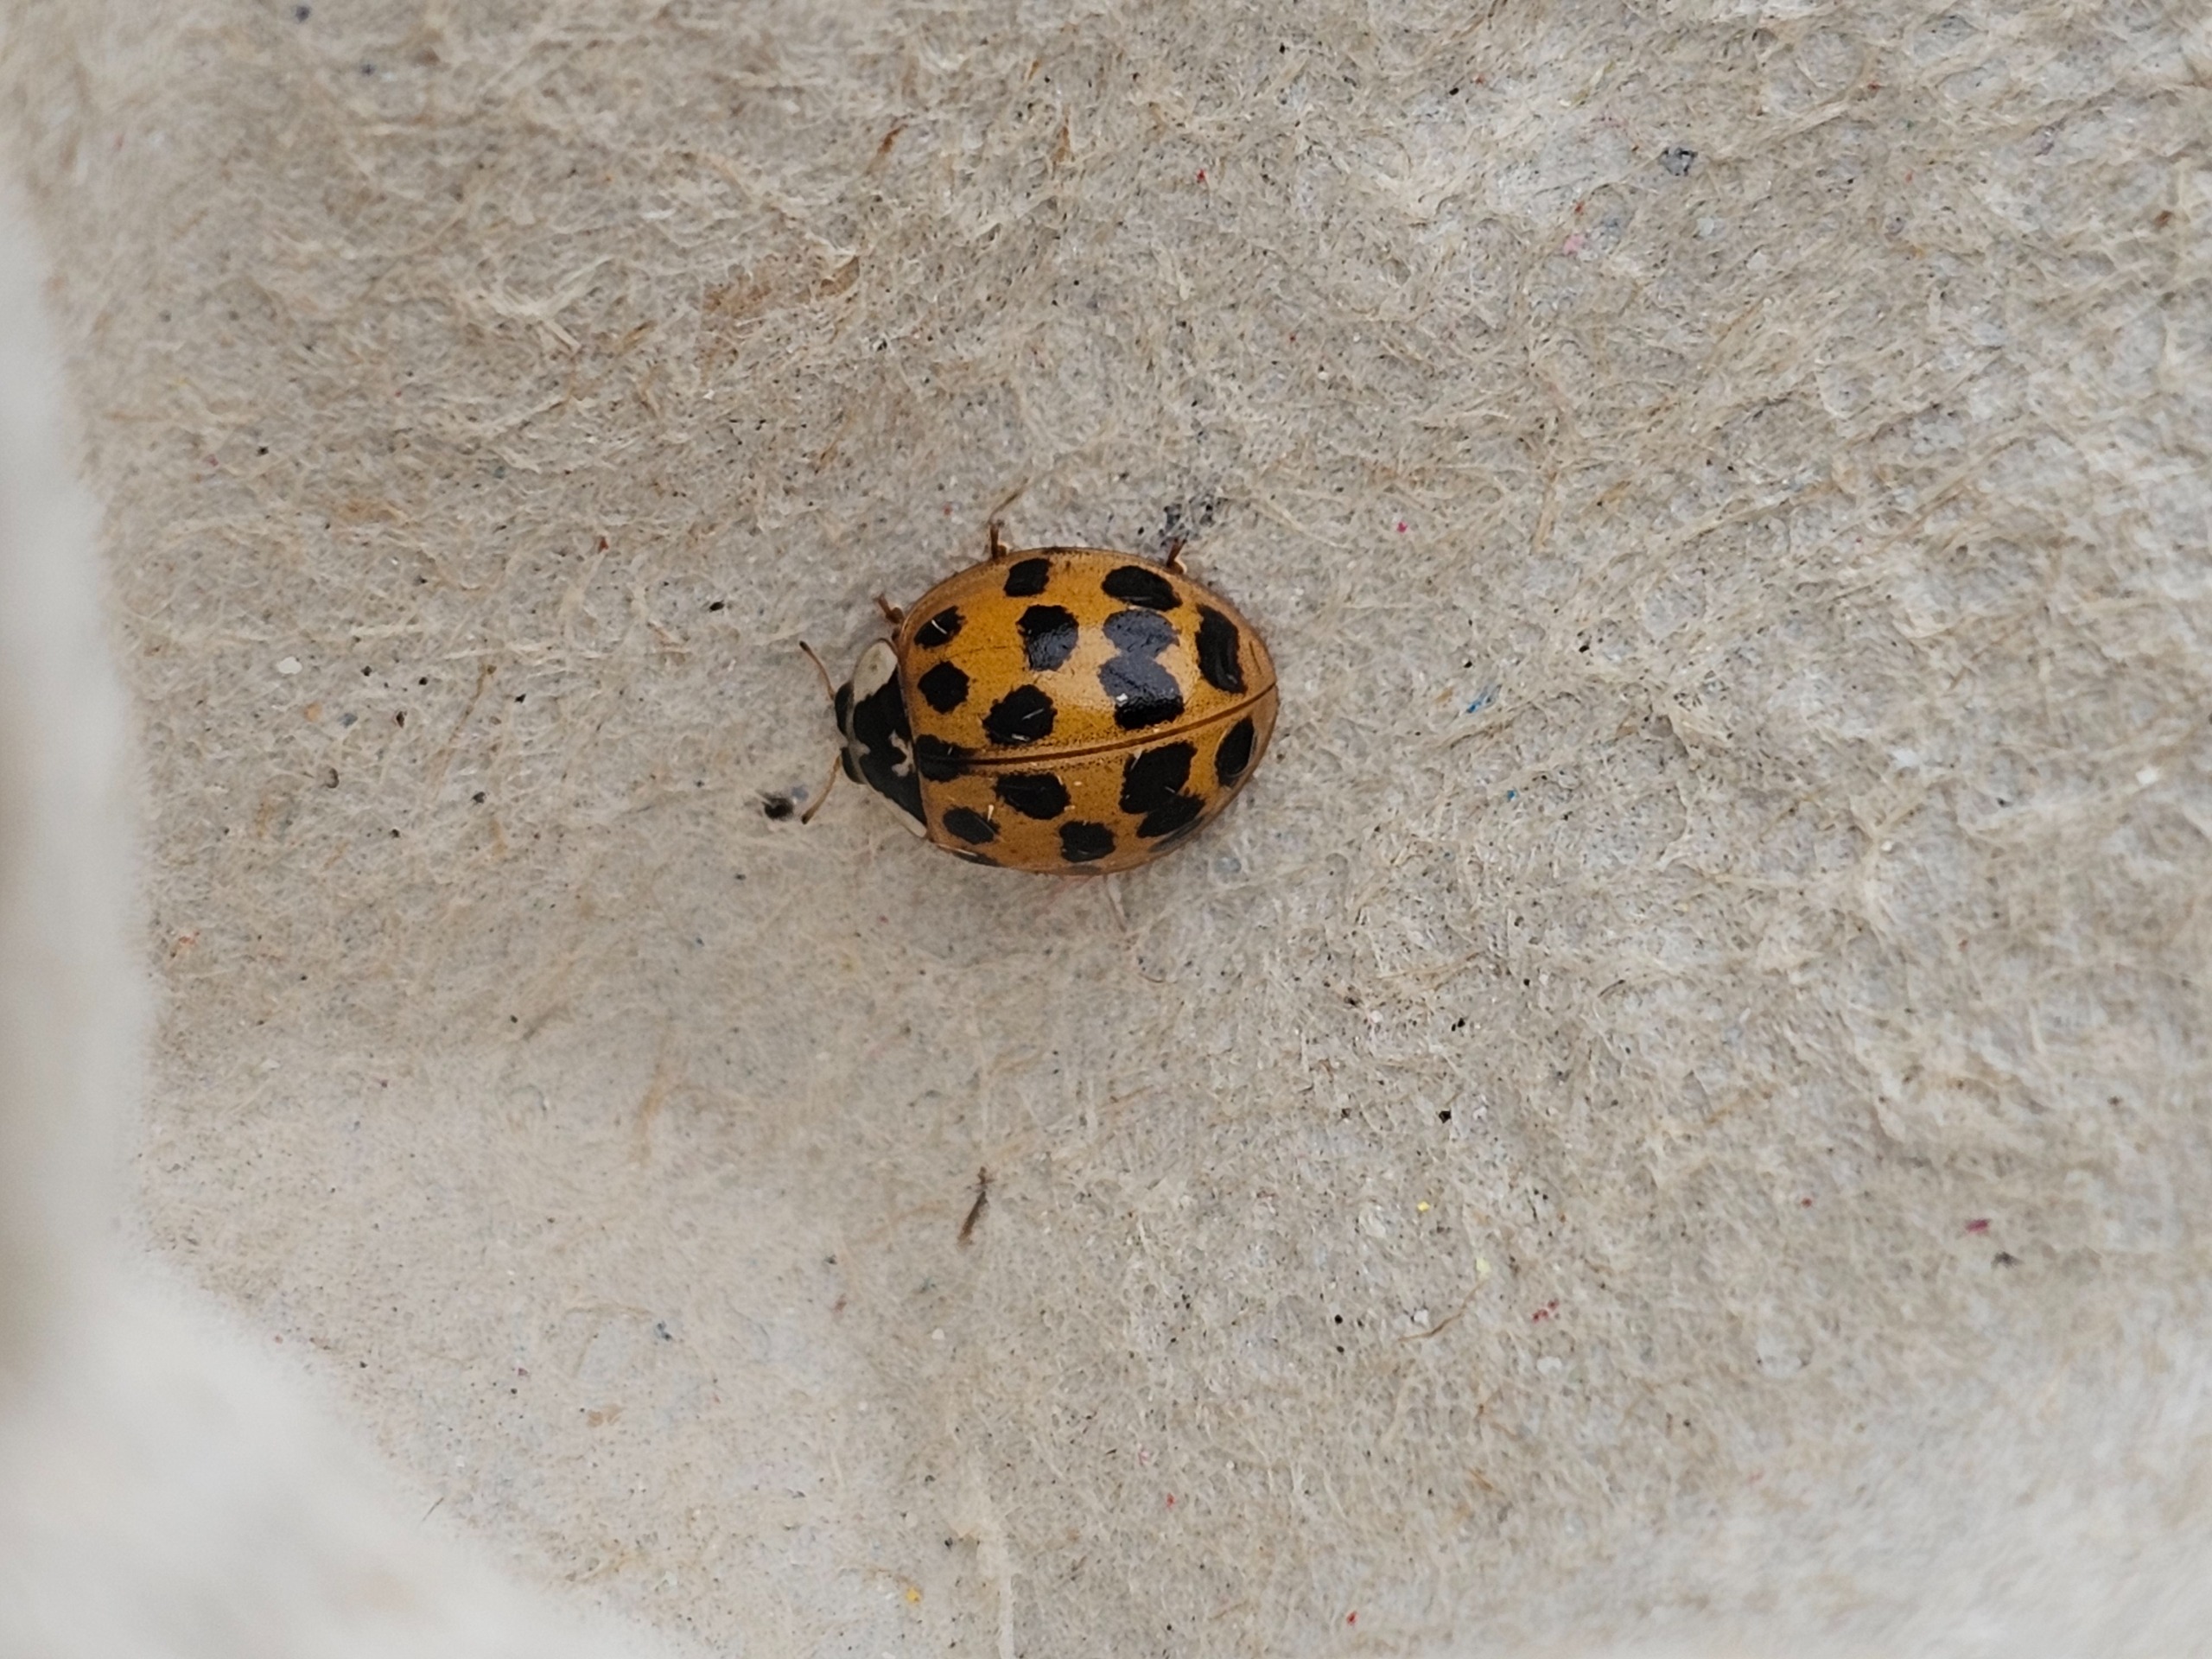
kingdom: Animalia
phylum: Arthropoda
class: Insecta
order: Coleoptera
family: Coccinellidae
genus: Harmonia
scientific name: Harmonia axyridis
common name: Harlekinmariehøne
